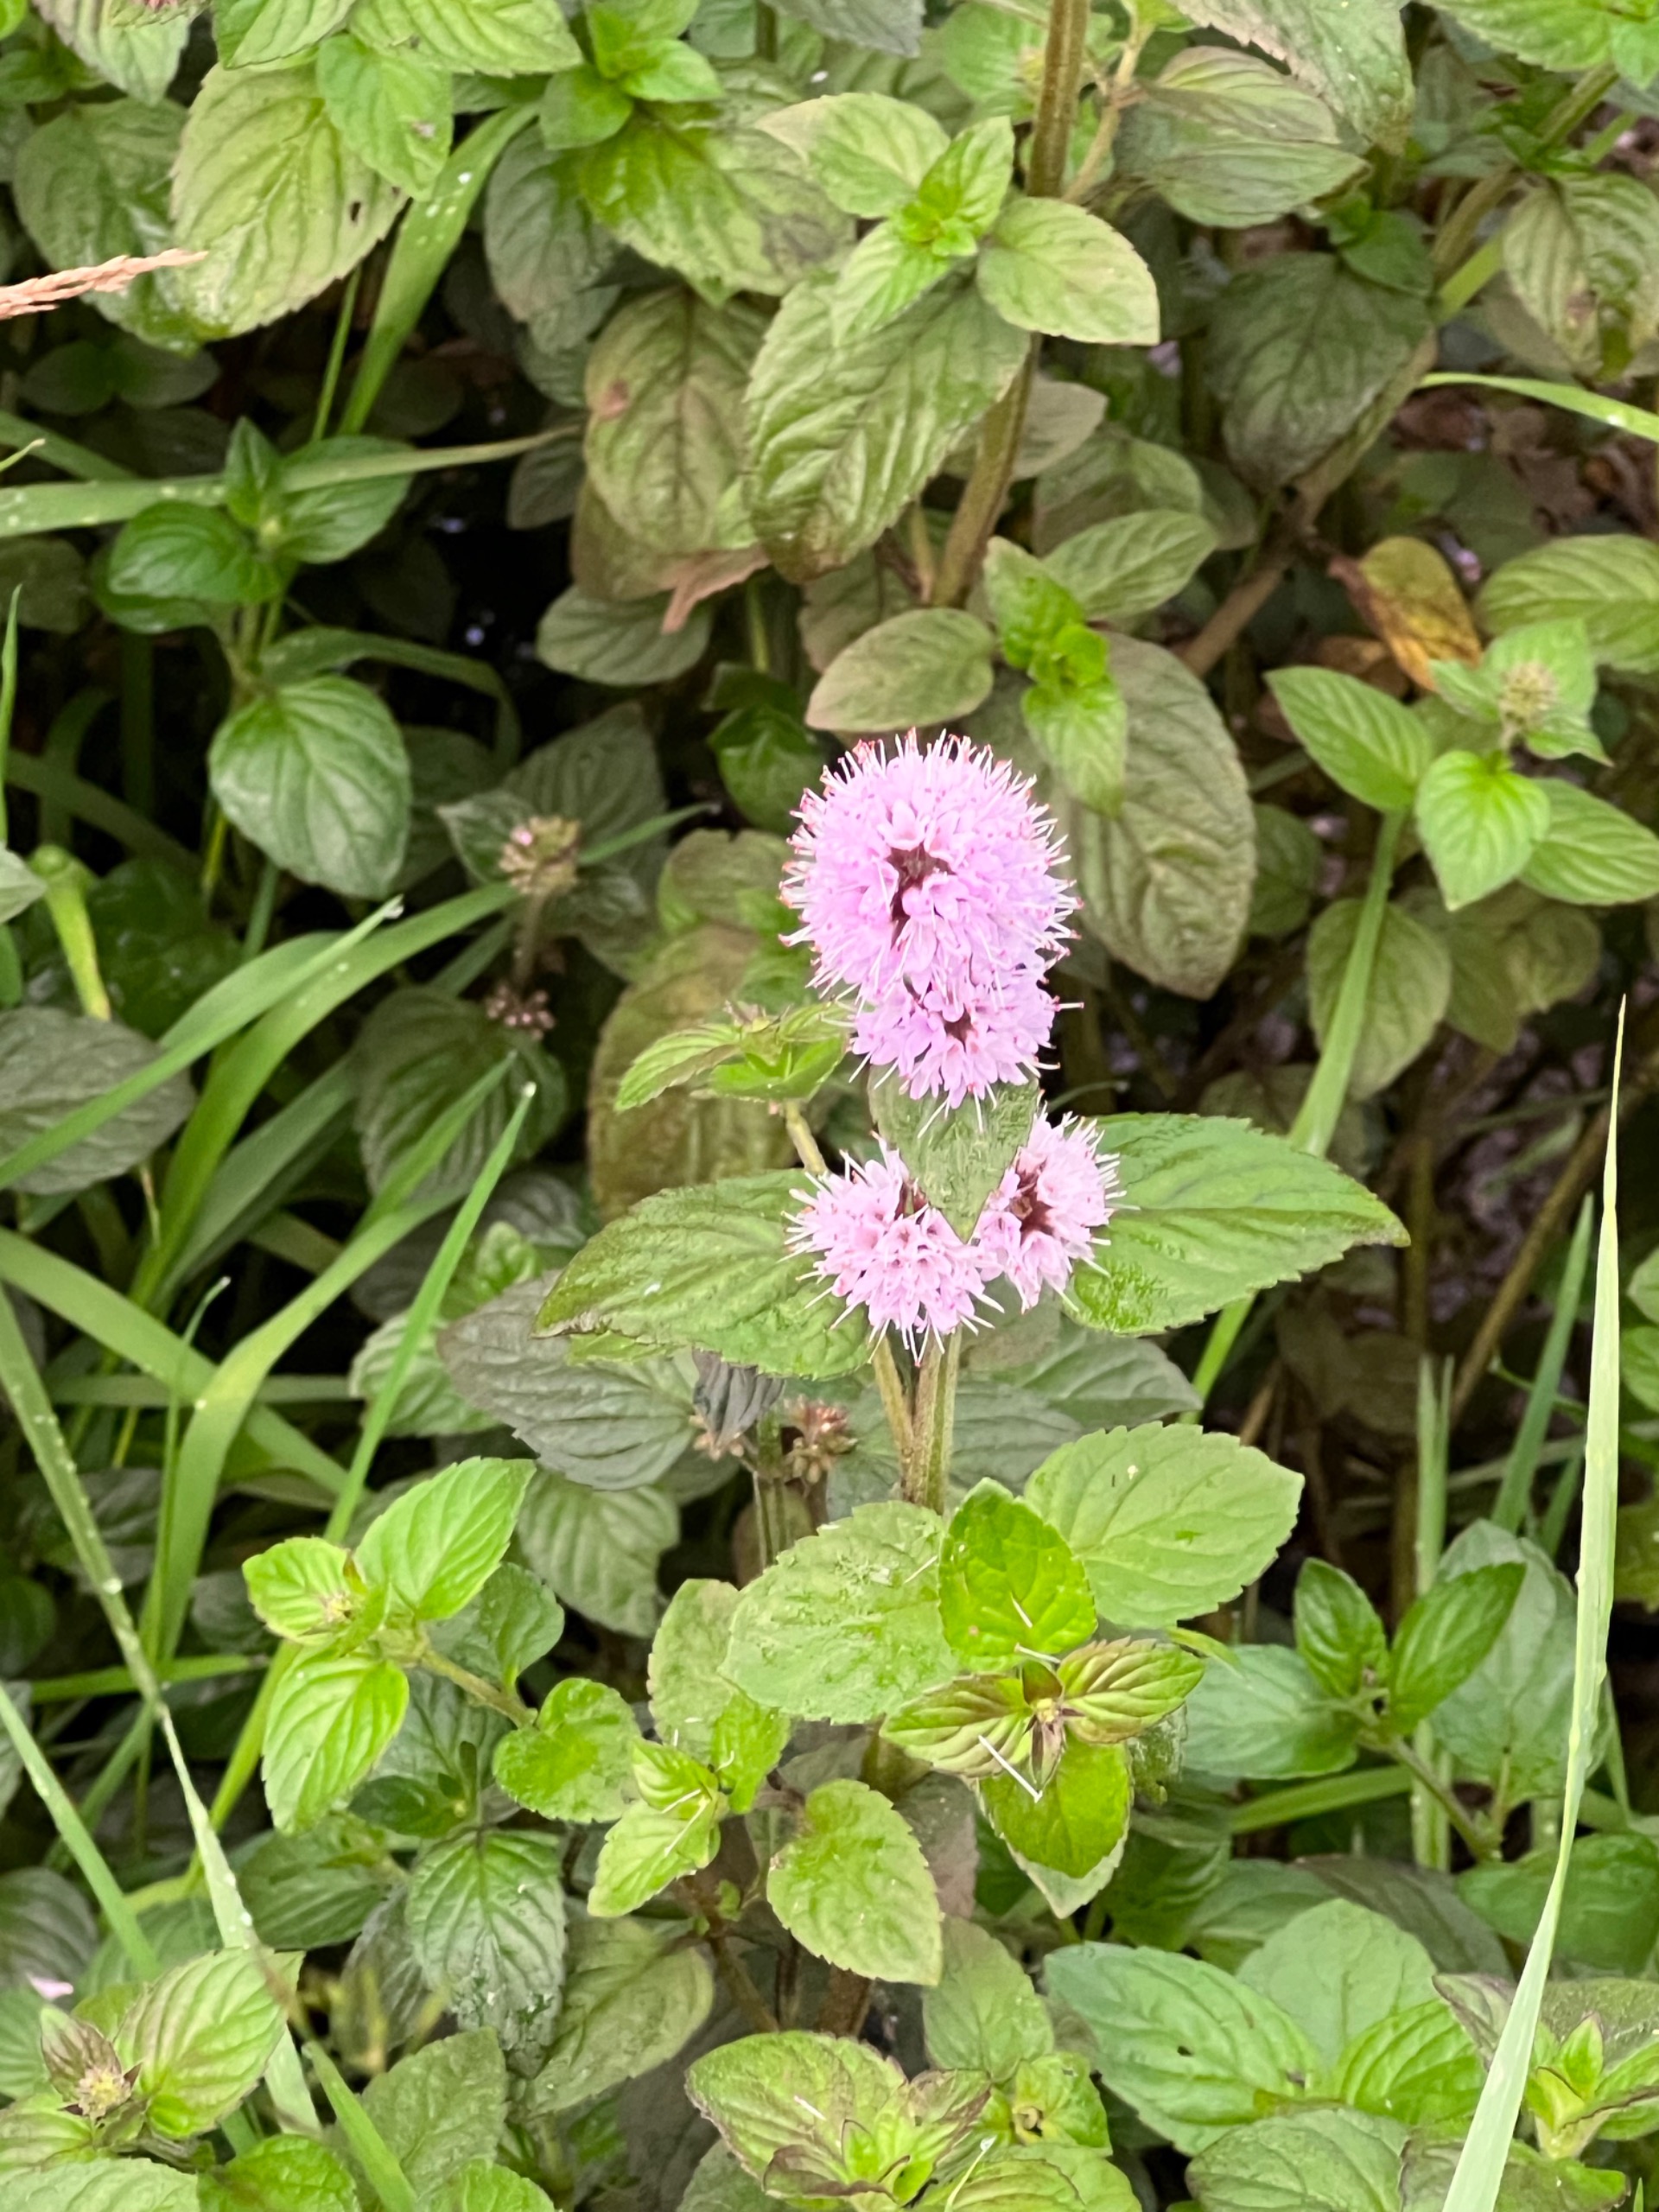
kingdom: Plantae
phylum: Tracheophyta
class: Magnoliopsida
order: Lamiales
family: Lamiaceae
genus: Mentha
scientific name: Mentha aquatica
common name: Vand-mynte
